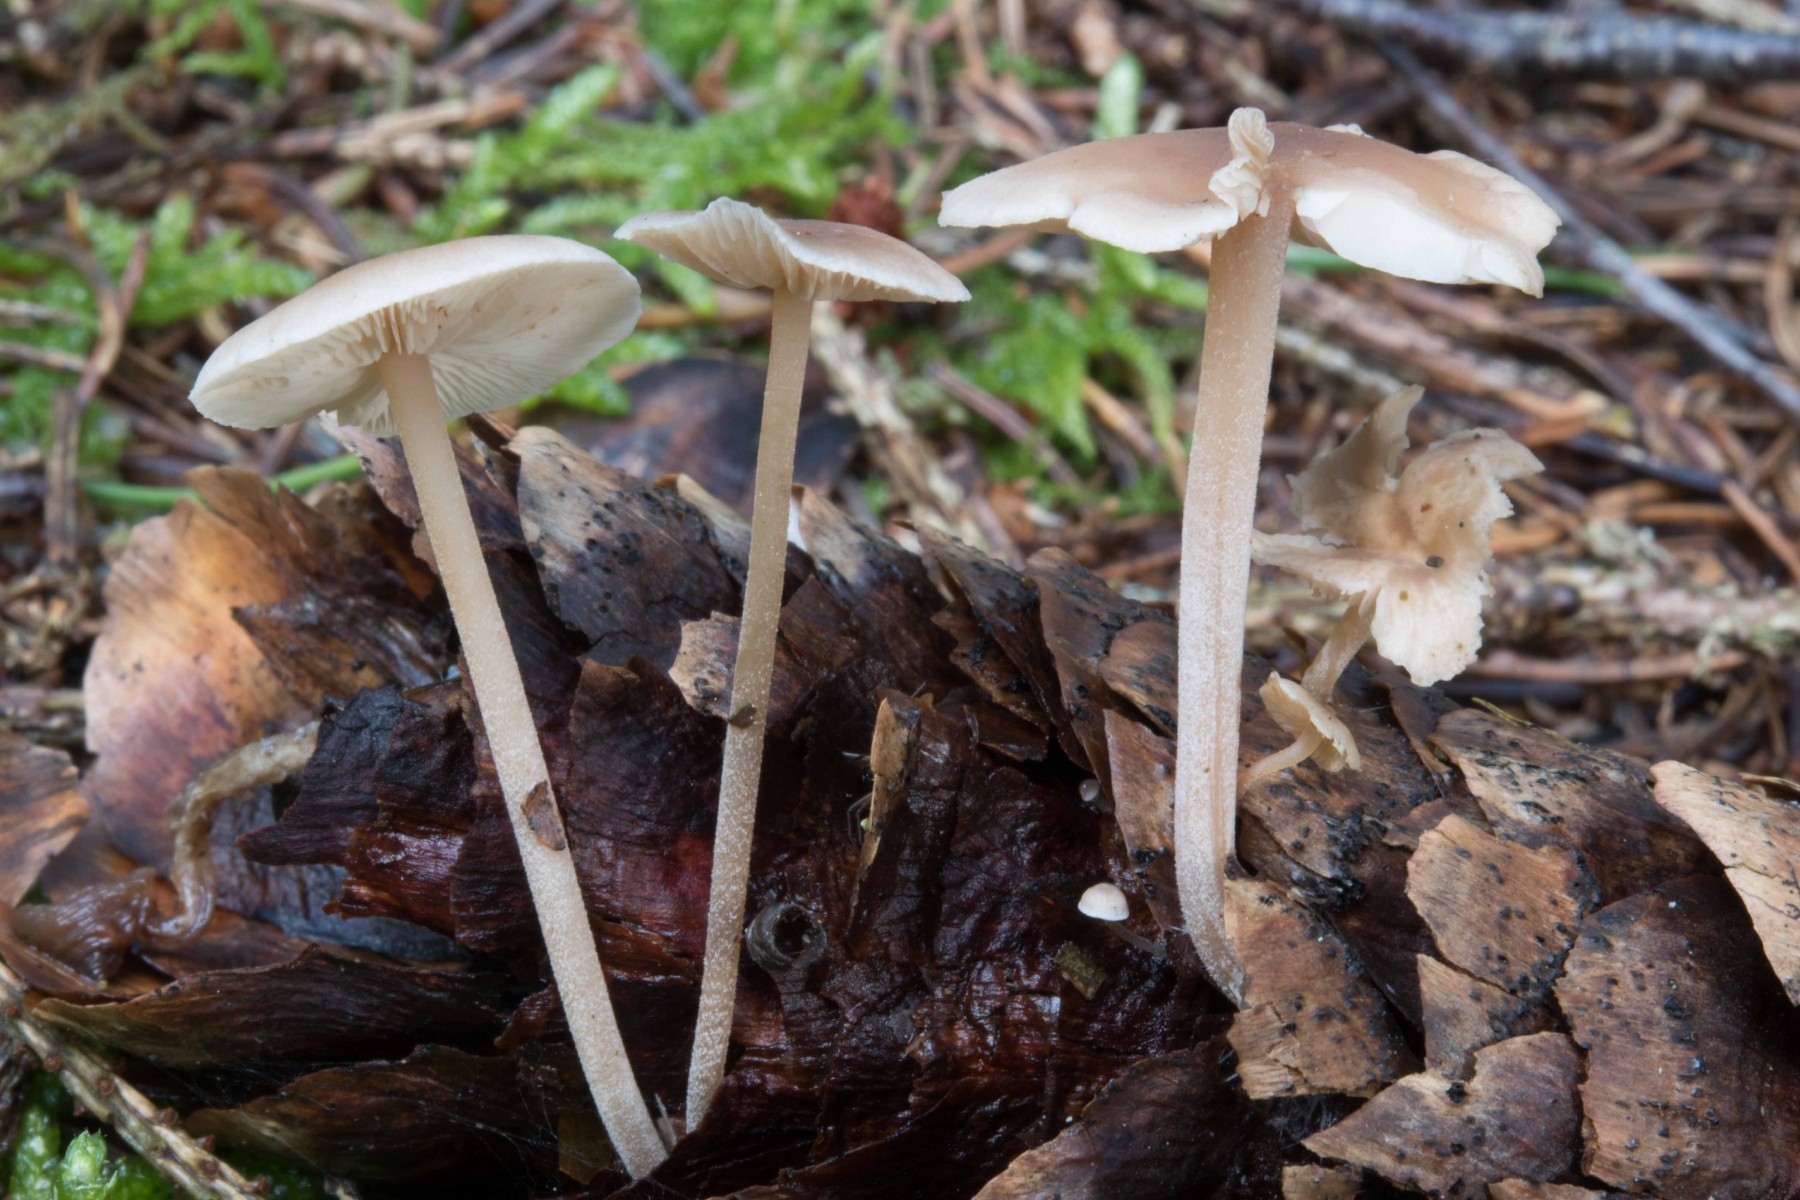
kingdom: Fungi
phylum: Basidiomycota
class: Agaricomycetes
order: Agaricales
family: Marasmiaceae
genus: Baeospora
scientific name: Baeospora myosura
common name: koglebruskhat
